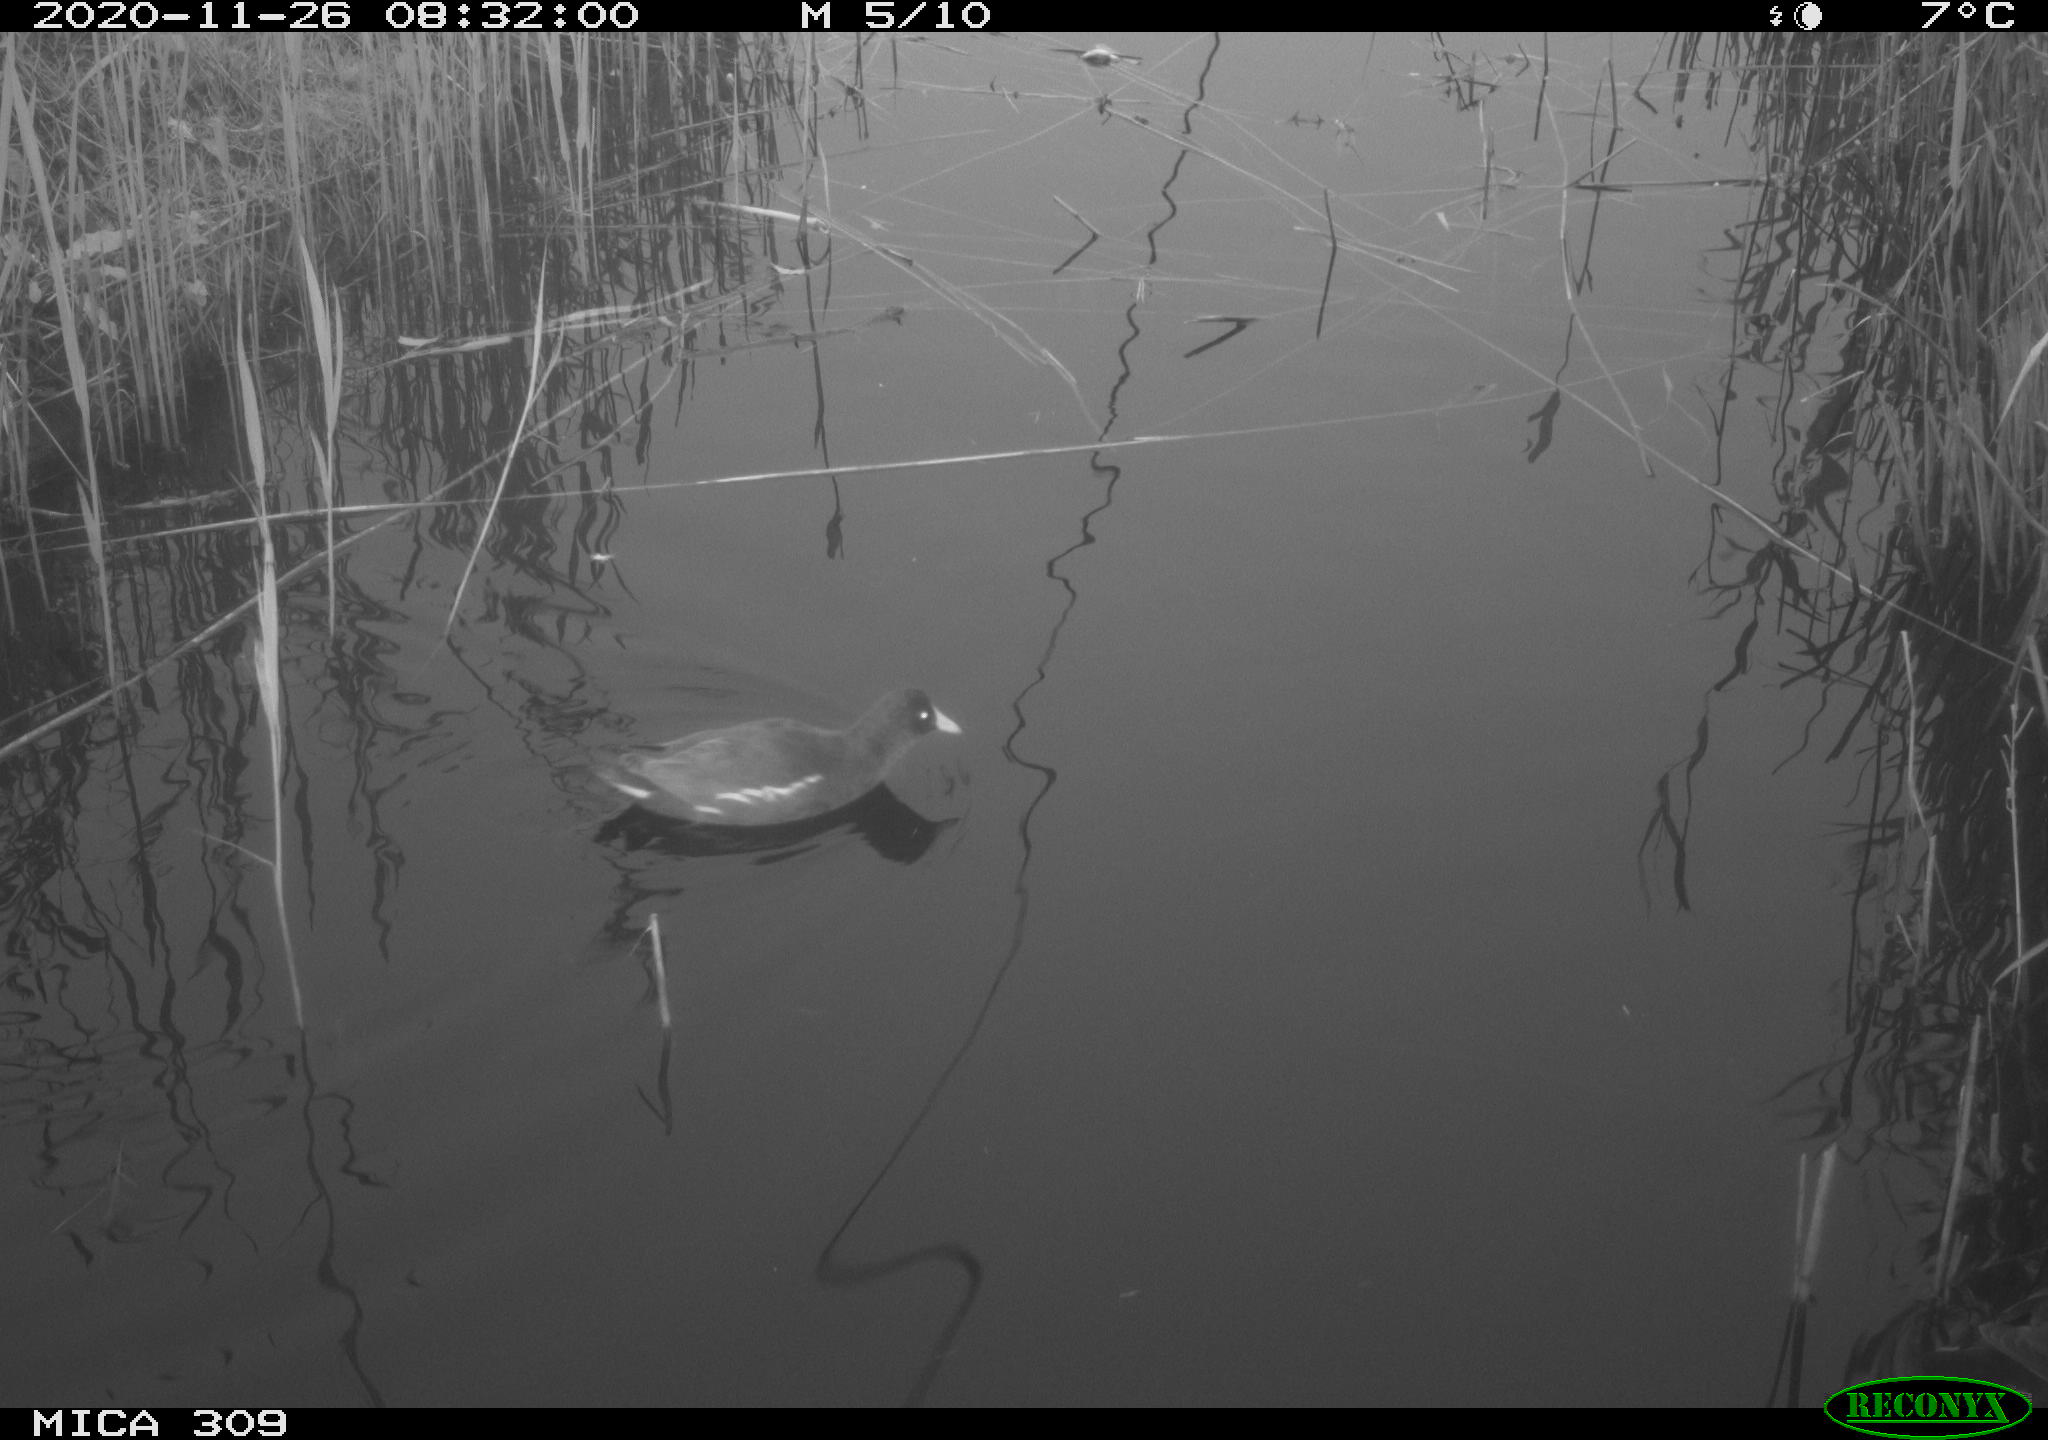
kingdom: Animalia
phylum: Chordata
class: Aves
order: Gruiformes
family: Rallidae
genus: Gallinula
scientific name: Gallinula chloropus
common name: Common moorhen
